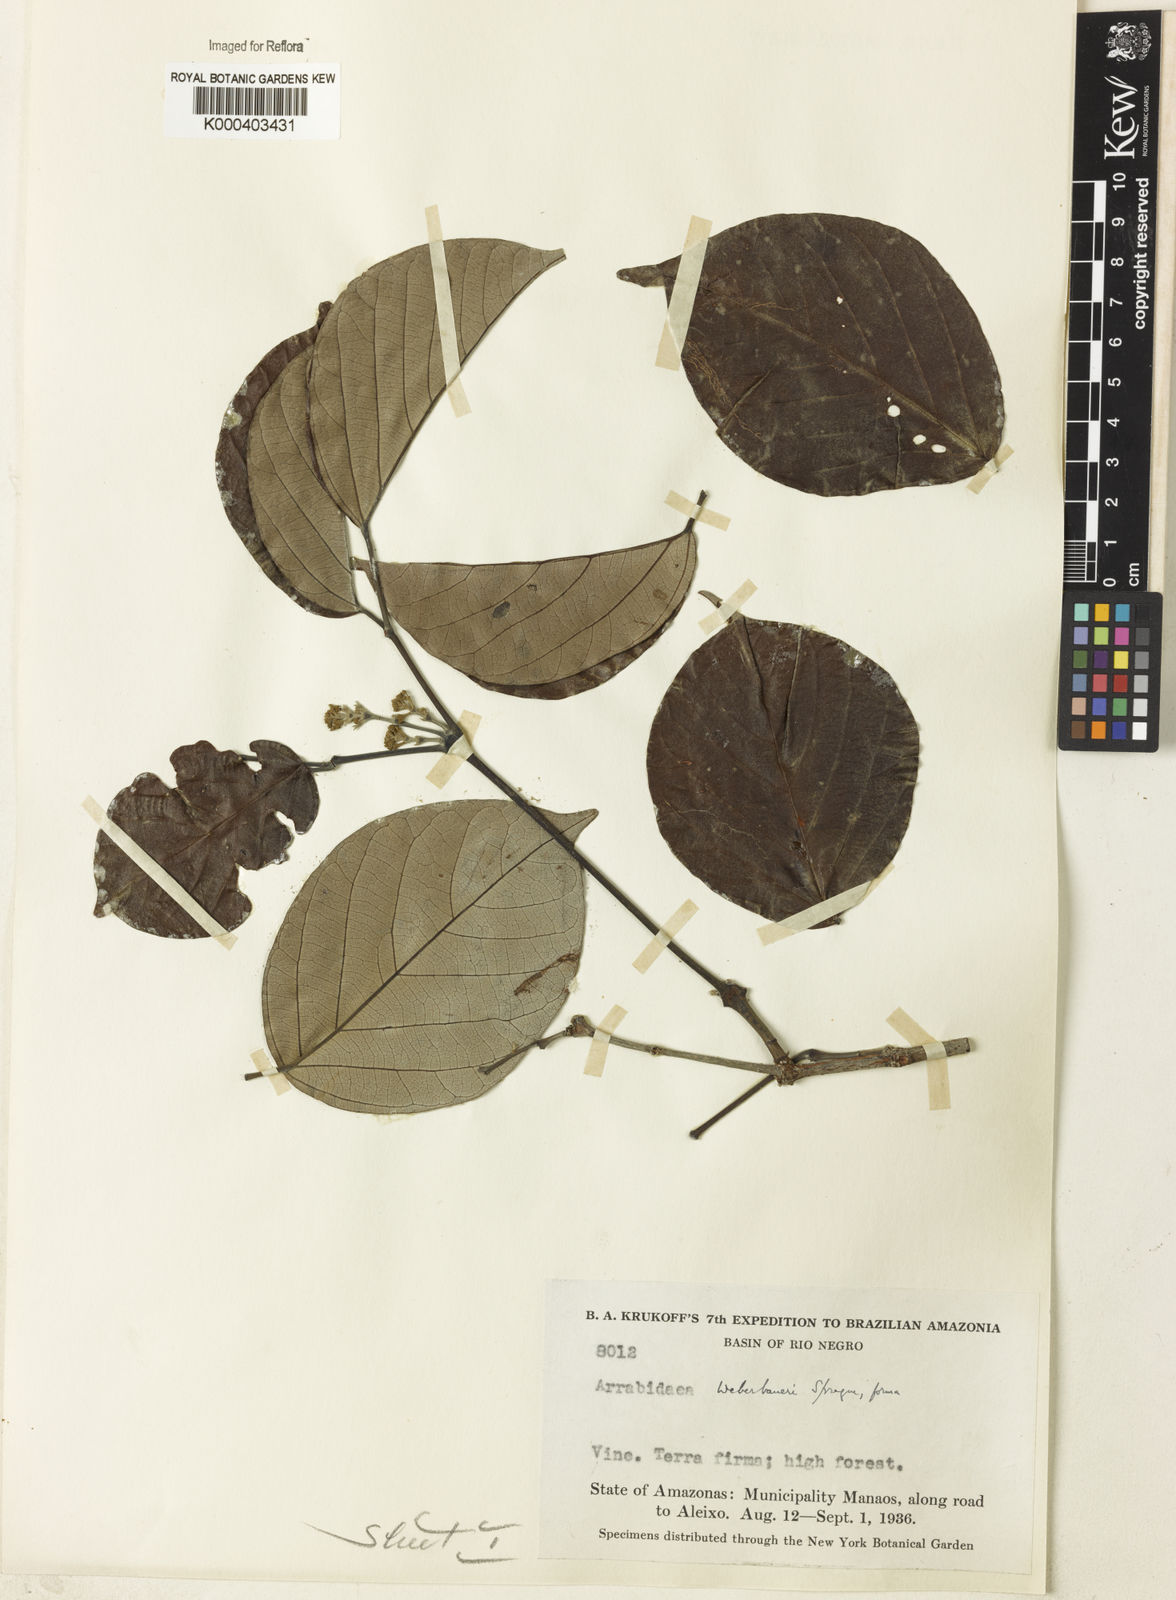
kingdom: Plantae
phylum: Tracheophyta
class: Magnoliopsida
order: Lamiales
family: Bignoniaceae
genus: Cuspidaria
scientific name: Cuspidaria weberbaueri
